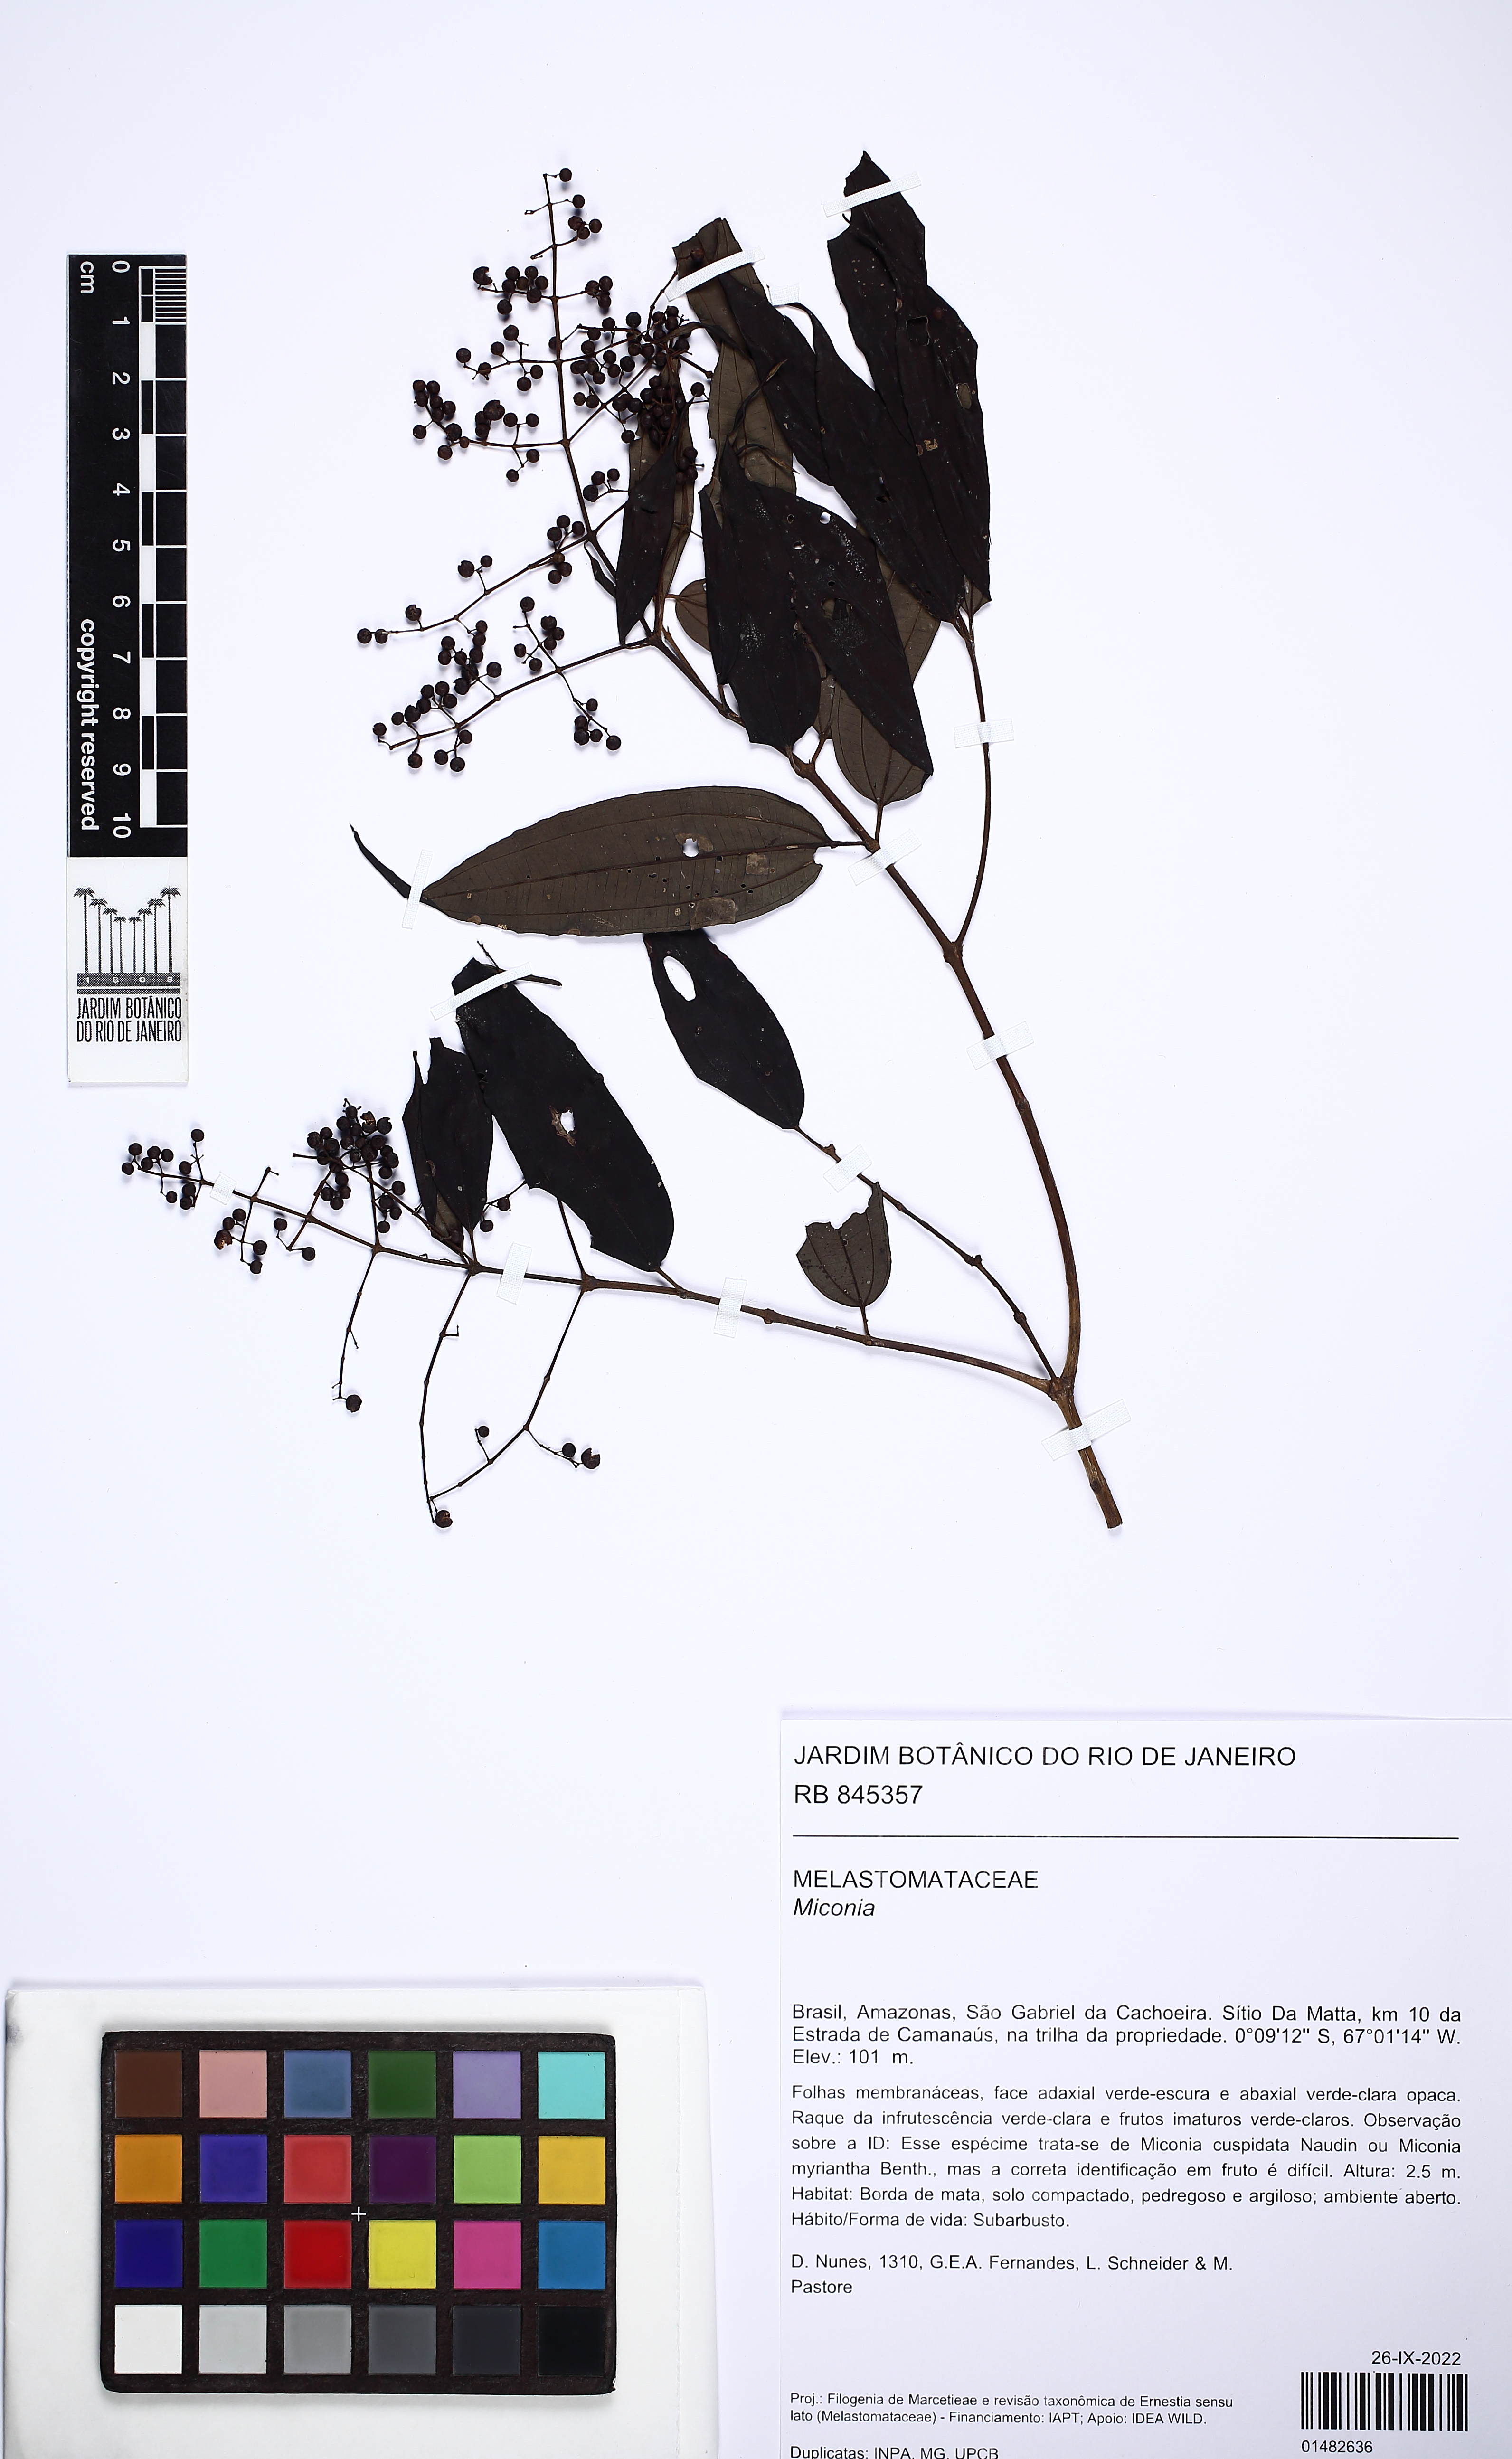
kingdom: Plantae
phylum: Tracheophyta
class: Magnoliopsida
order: Myrtales
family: Melastomataceae
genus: Miconia
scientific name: Miconia
